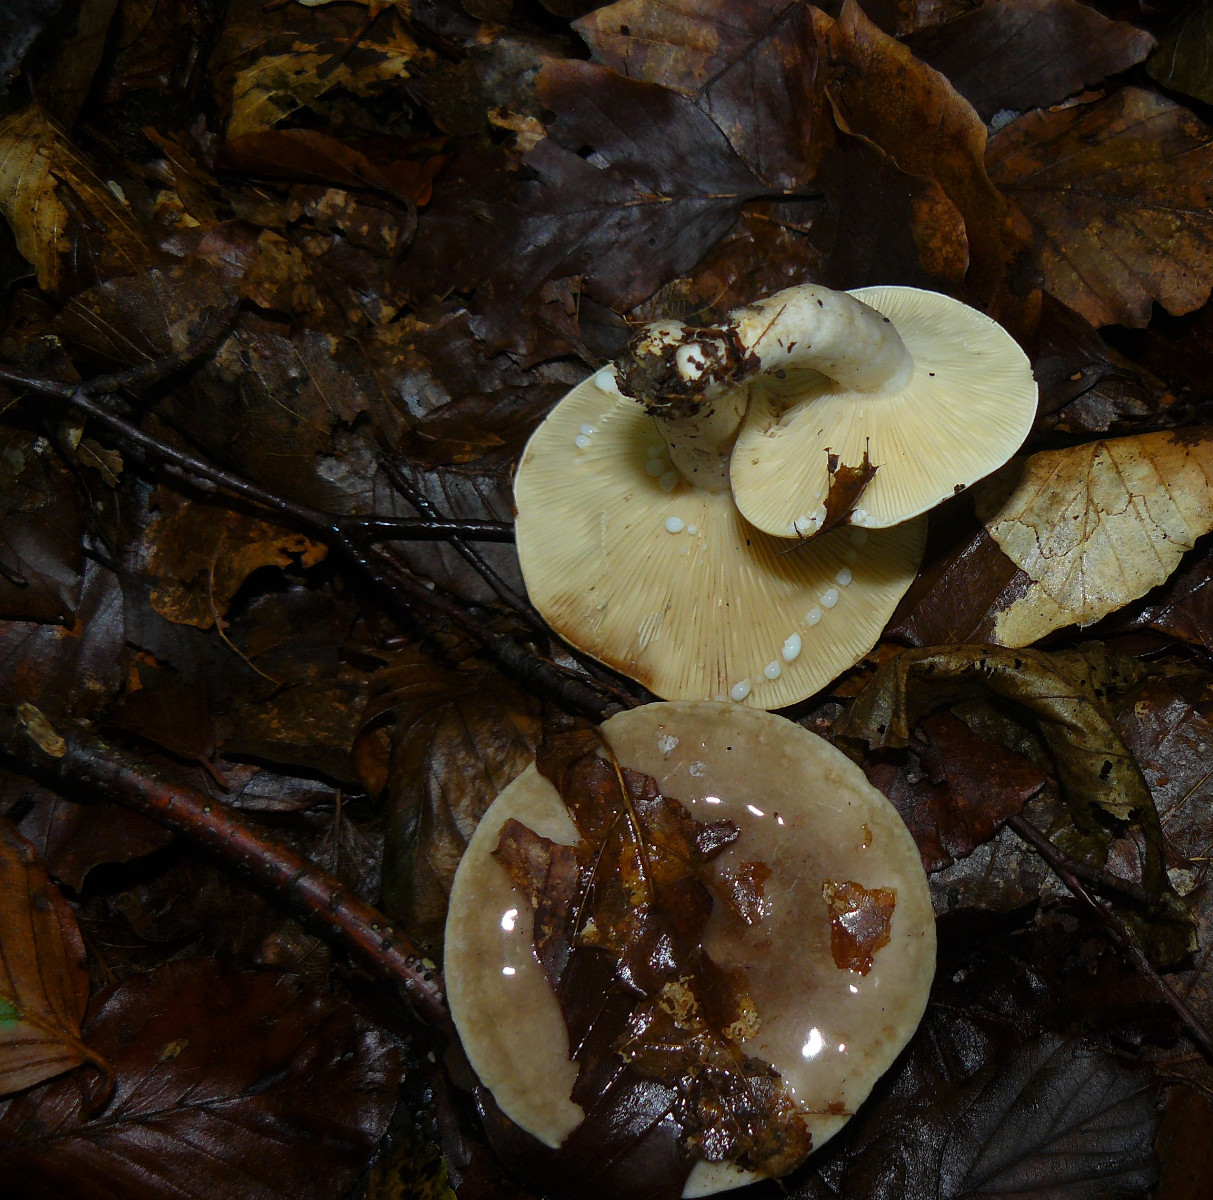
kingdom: Fungi
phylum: Basidiomycota
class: Agaricomycetes
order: Russulales
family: Russulaceae
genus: Lactarius
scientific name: Lactarius fluens
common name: lysrandet mælkehat
